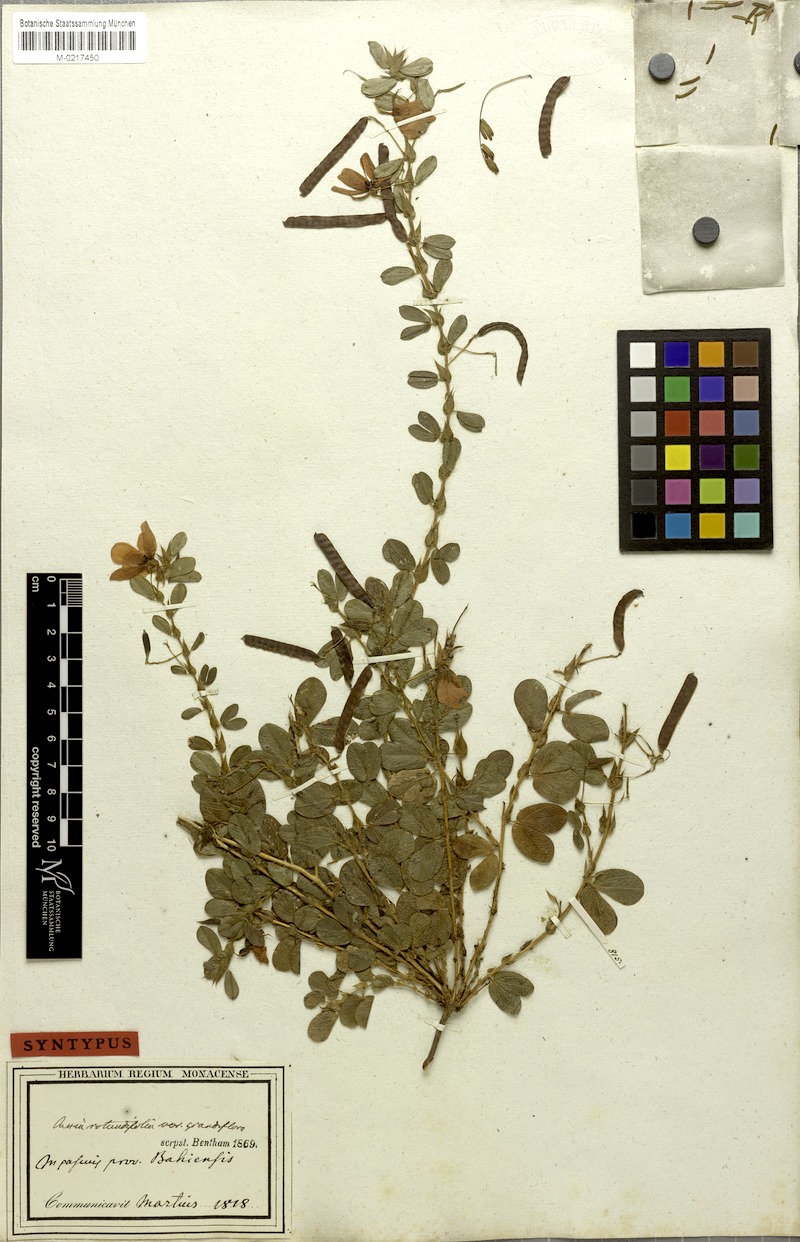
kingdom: Plantae
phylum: Tracheophyta
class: Magnoliopsida
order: Fabales
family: Fabaceae
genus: Chamaecrista
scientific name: Chamaecrista rotundifolia
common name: Round-leaf cassia
